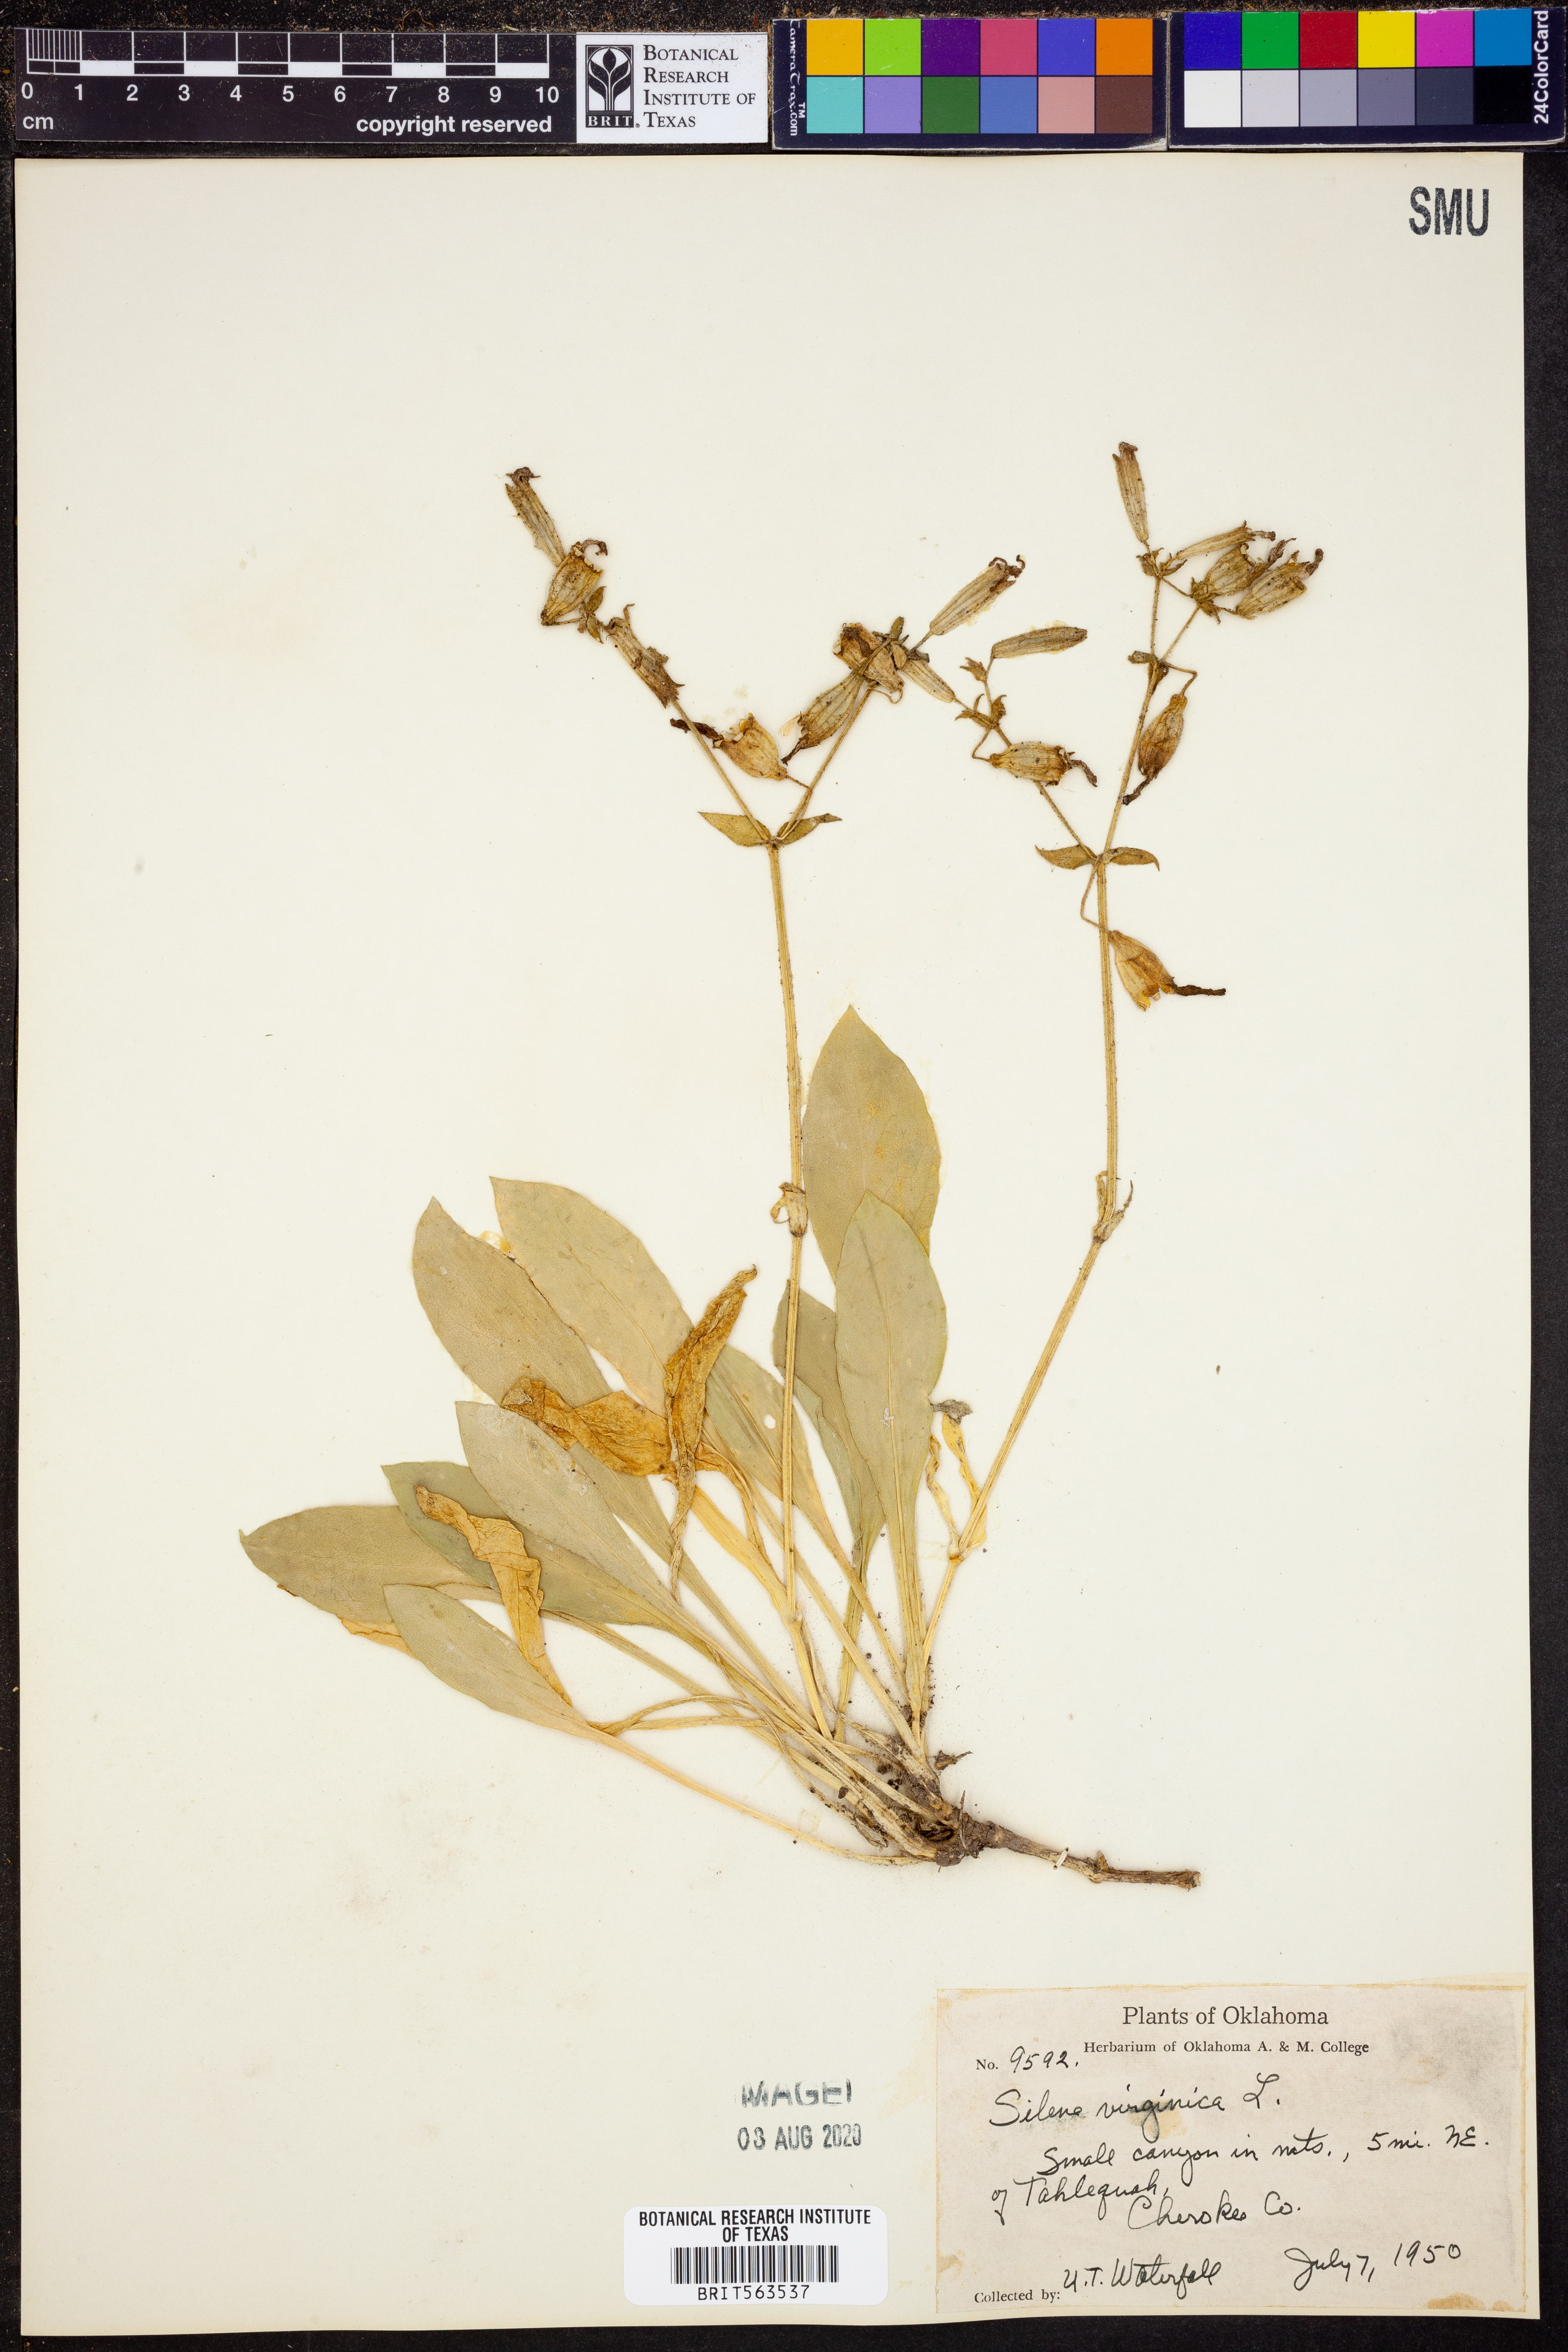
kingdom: Plantae
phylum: Tracheophyta
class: Magnoliopsida
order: Caryophyllales
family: Caryophyllaceae
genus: Silene
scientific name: Silene virginica
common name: Fire-pink
